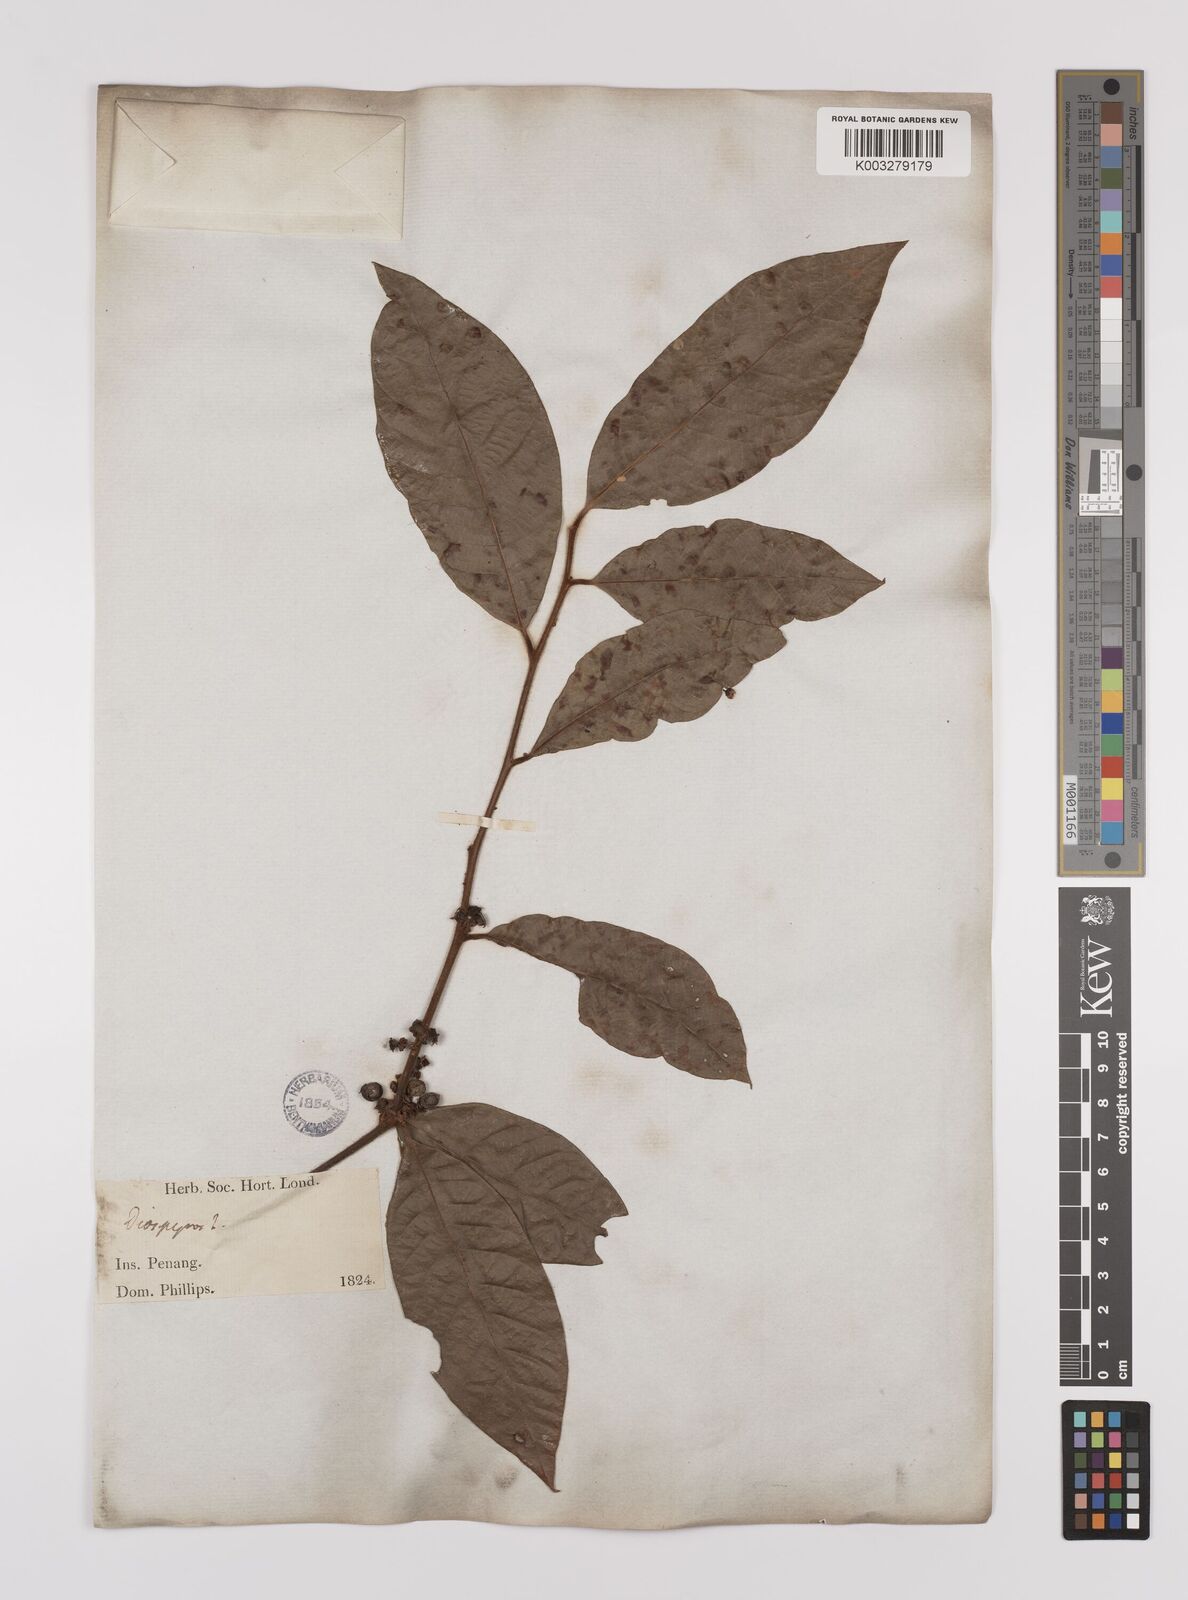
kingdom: Plantae
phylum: Tracheophyta
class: Magnoliopsida
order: Laurales
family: Lauraceae
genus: Litsea
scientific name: Litsea umbellata
